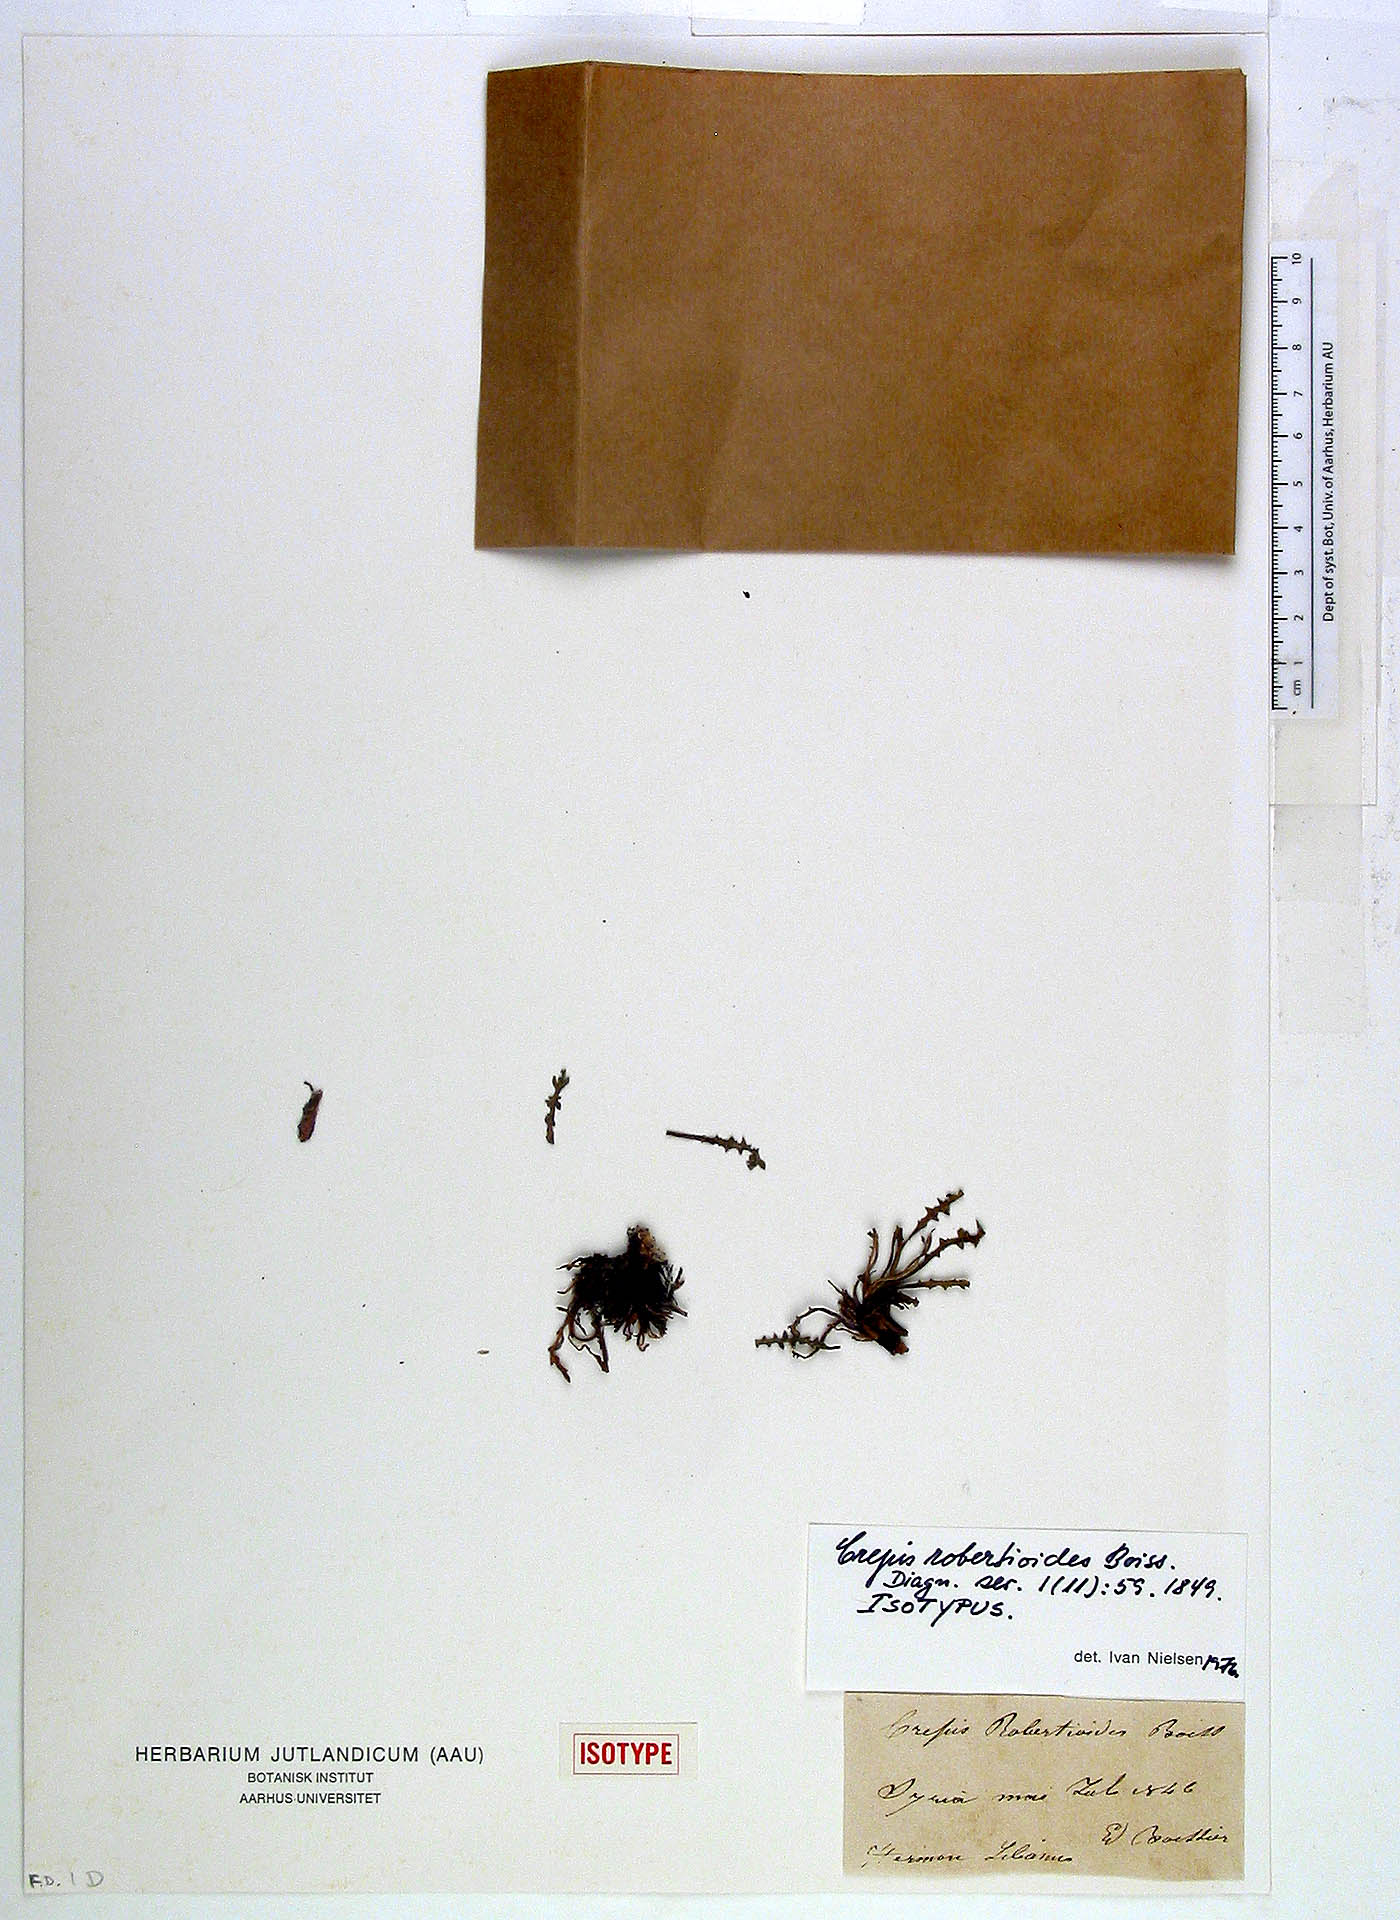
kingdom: Plantae
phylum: Tracheophyta
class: Magnoliopsida
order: Asterales
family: Asteraceae
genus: Crepis
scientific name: Crepis robertioides
